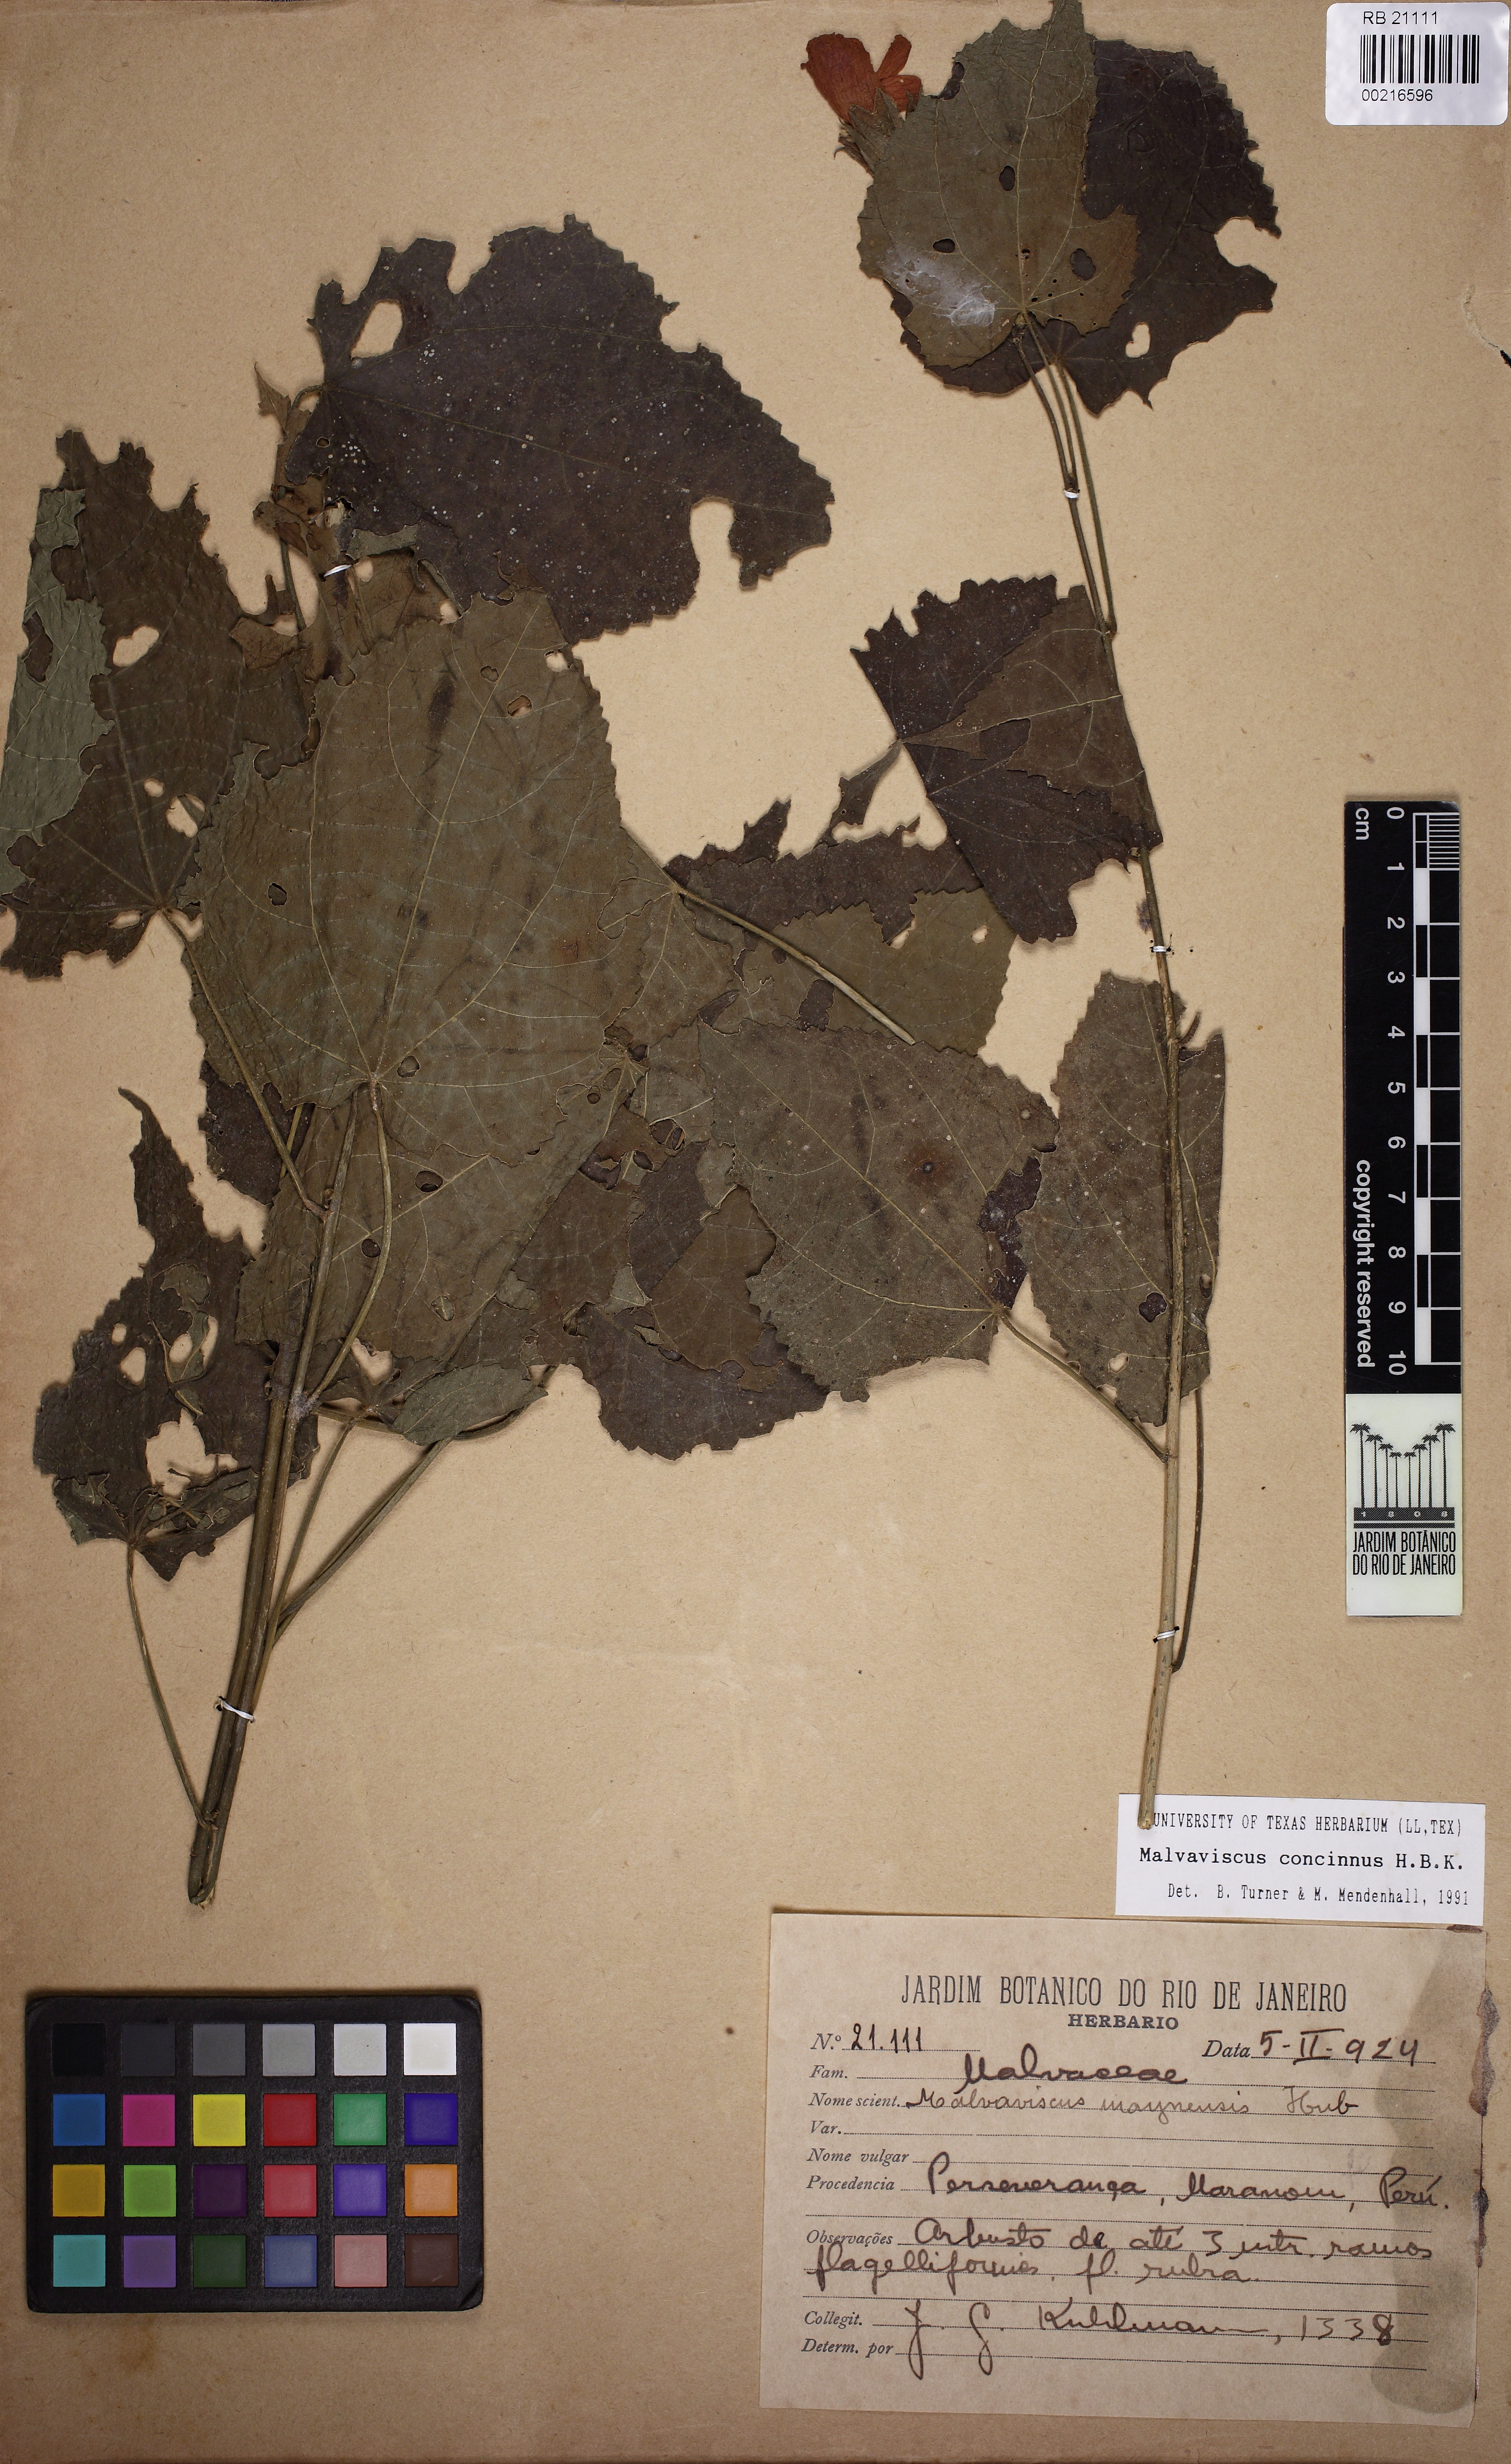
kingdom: Plantae
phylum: Tracheophyta
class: Magnoliopsida
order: Malvales
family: Malvaceae
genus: Malvaviscus
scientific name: Malvaviscus concinnus
